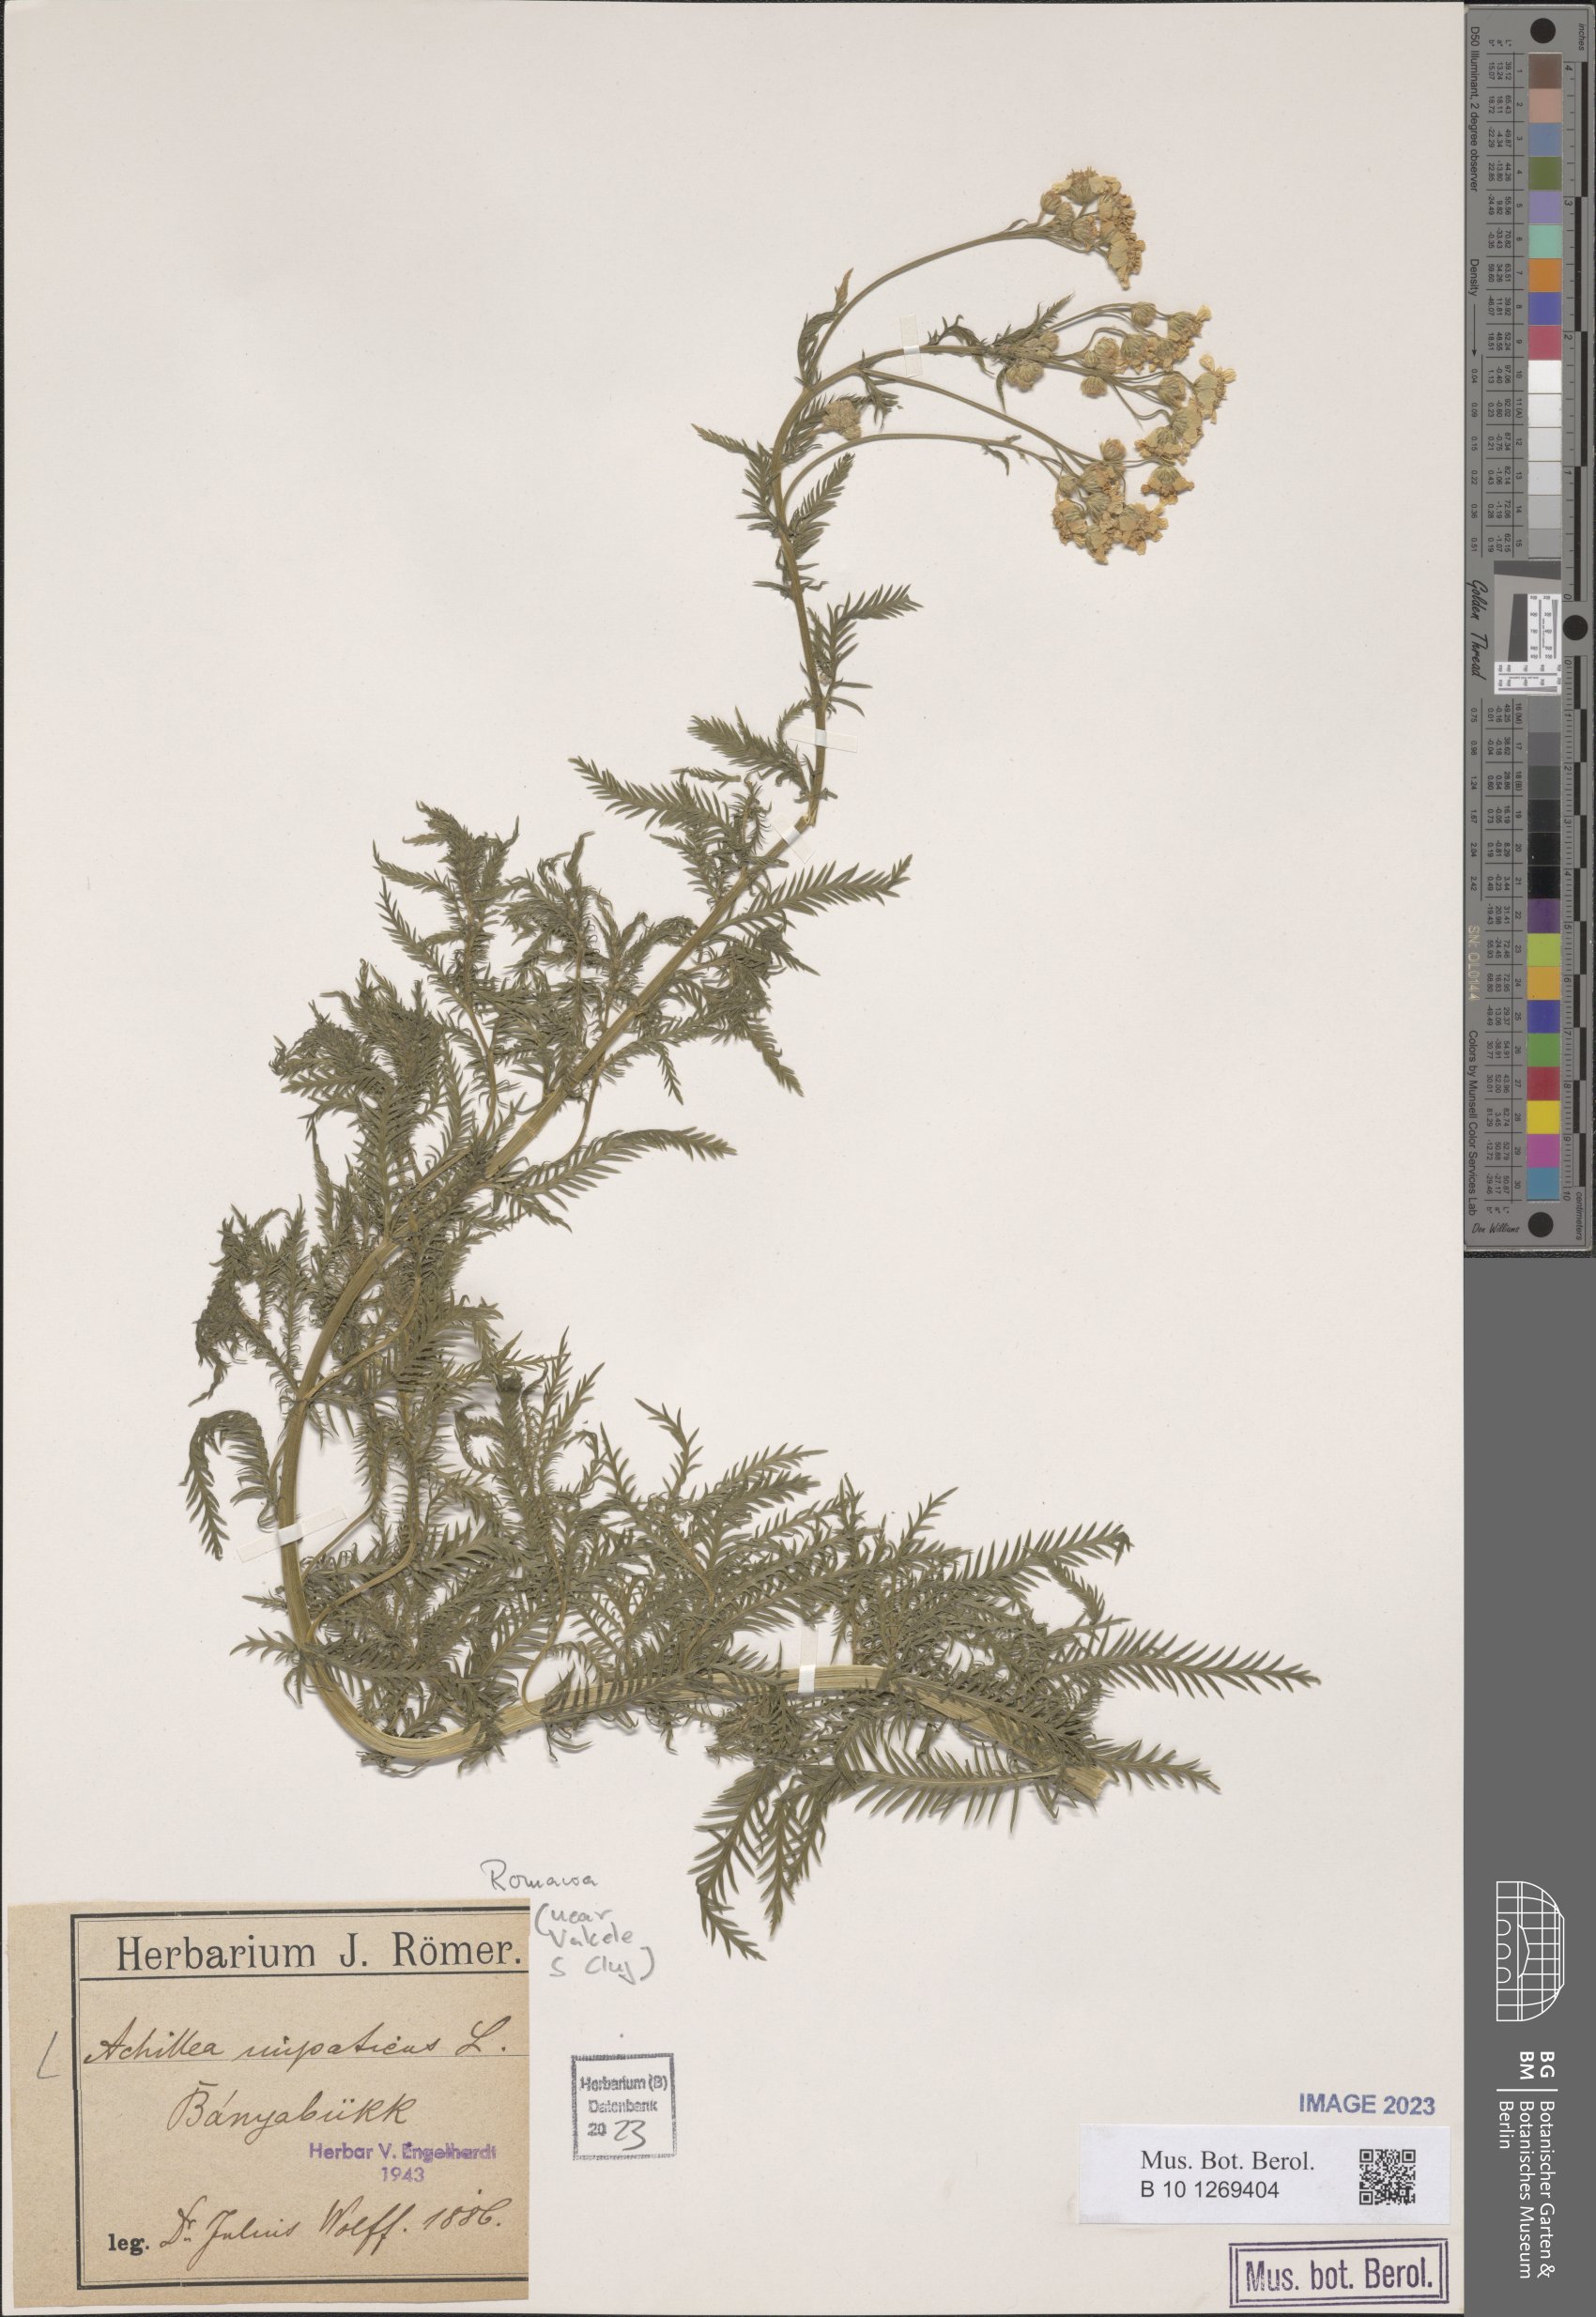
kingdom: Plantae
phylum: Tracheophyta
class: Magnoliopsida
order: Asterales
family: Asteraceae
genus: Achillea
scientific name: Achillea impatiens
